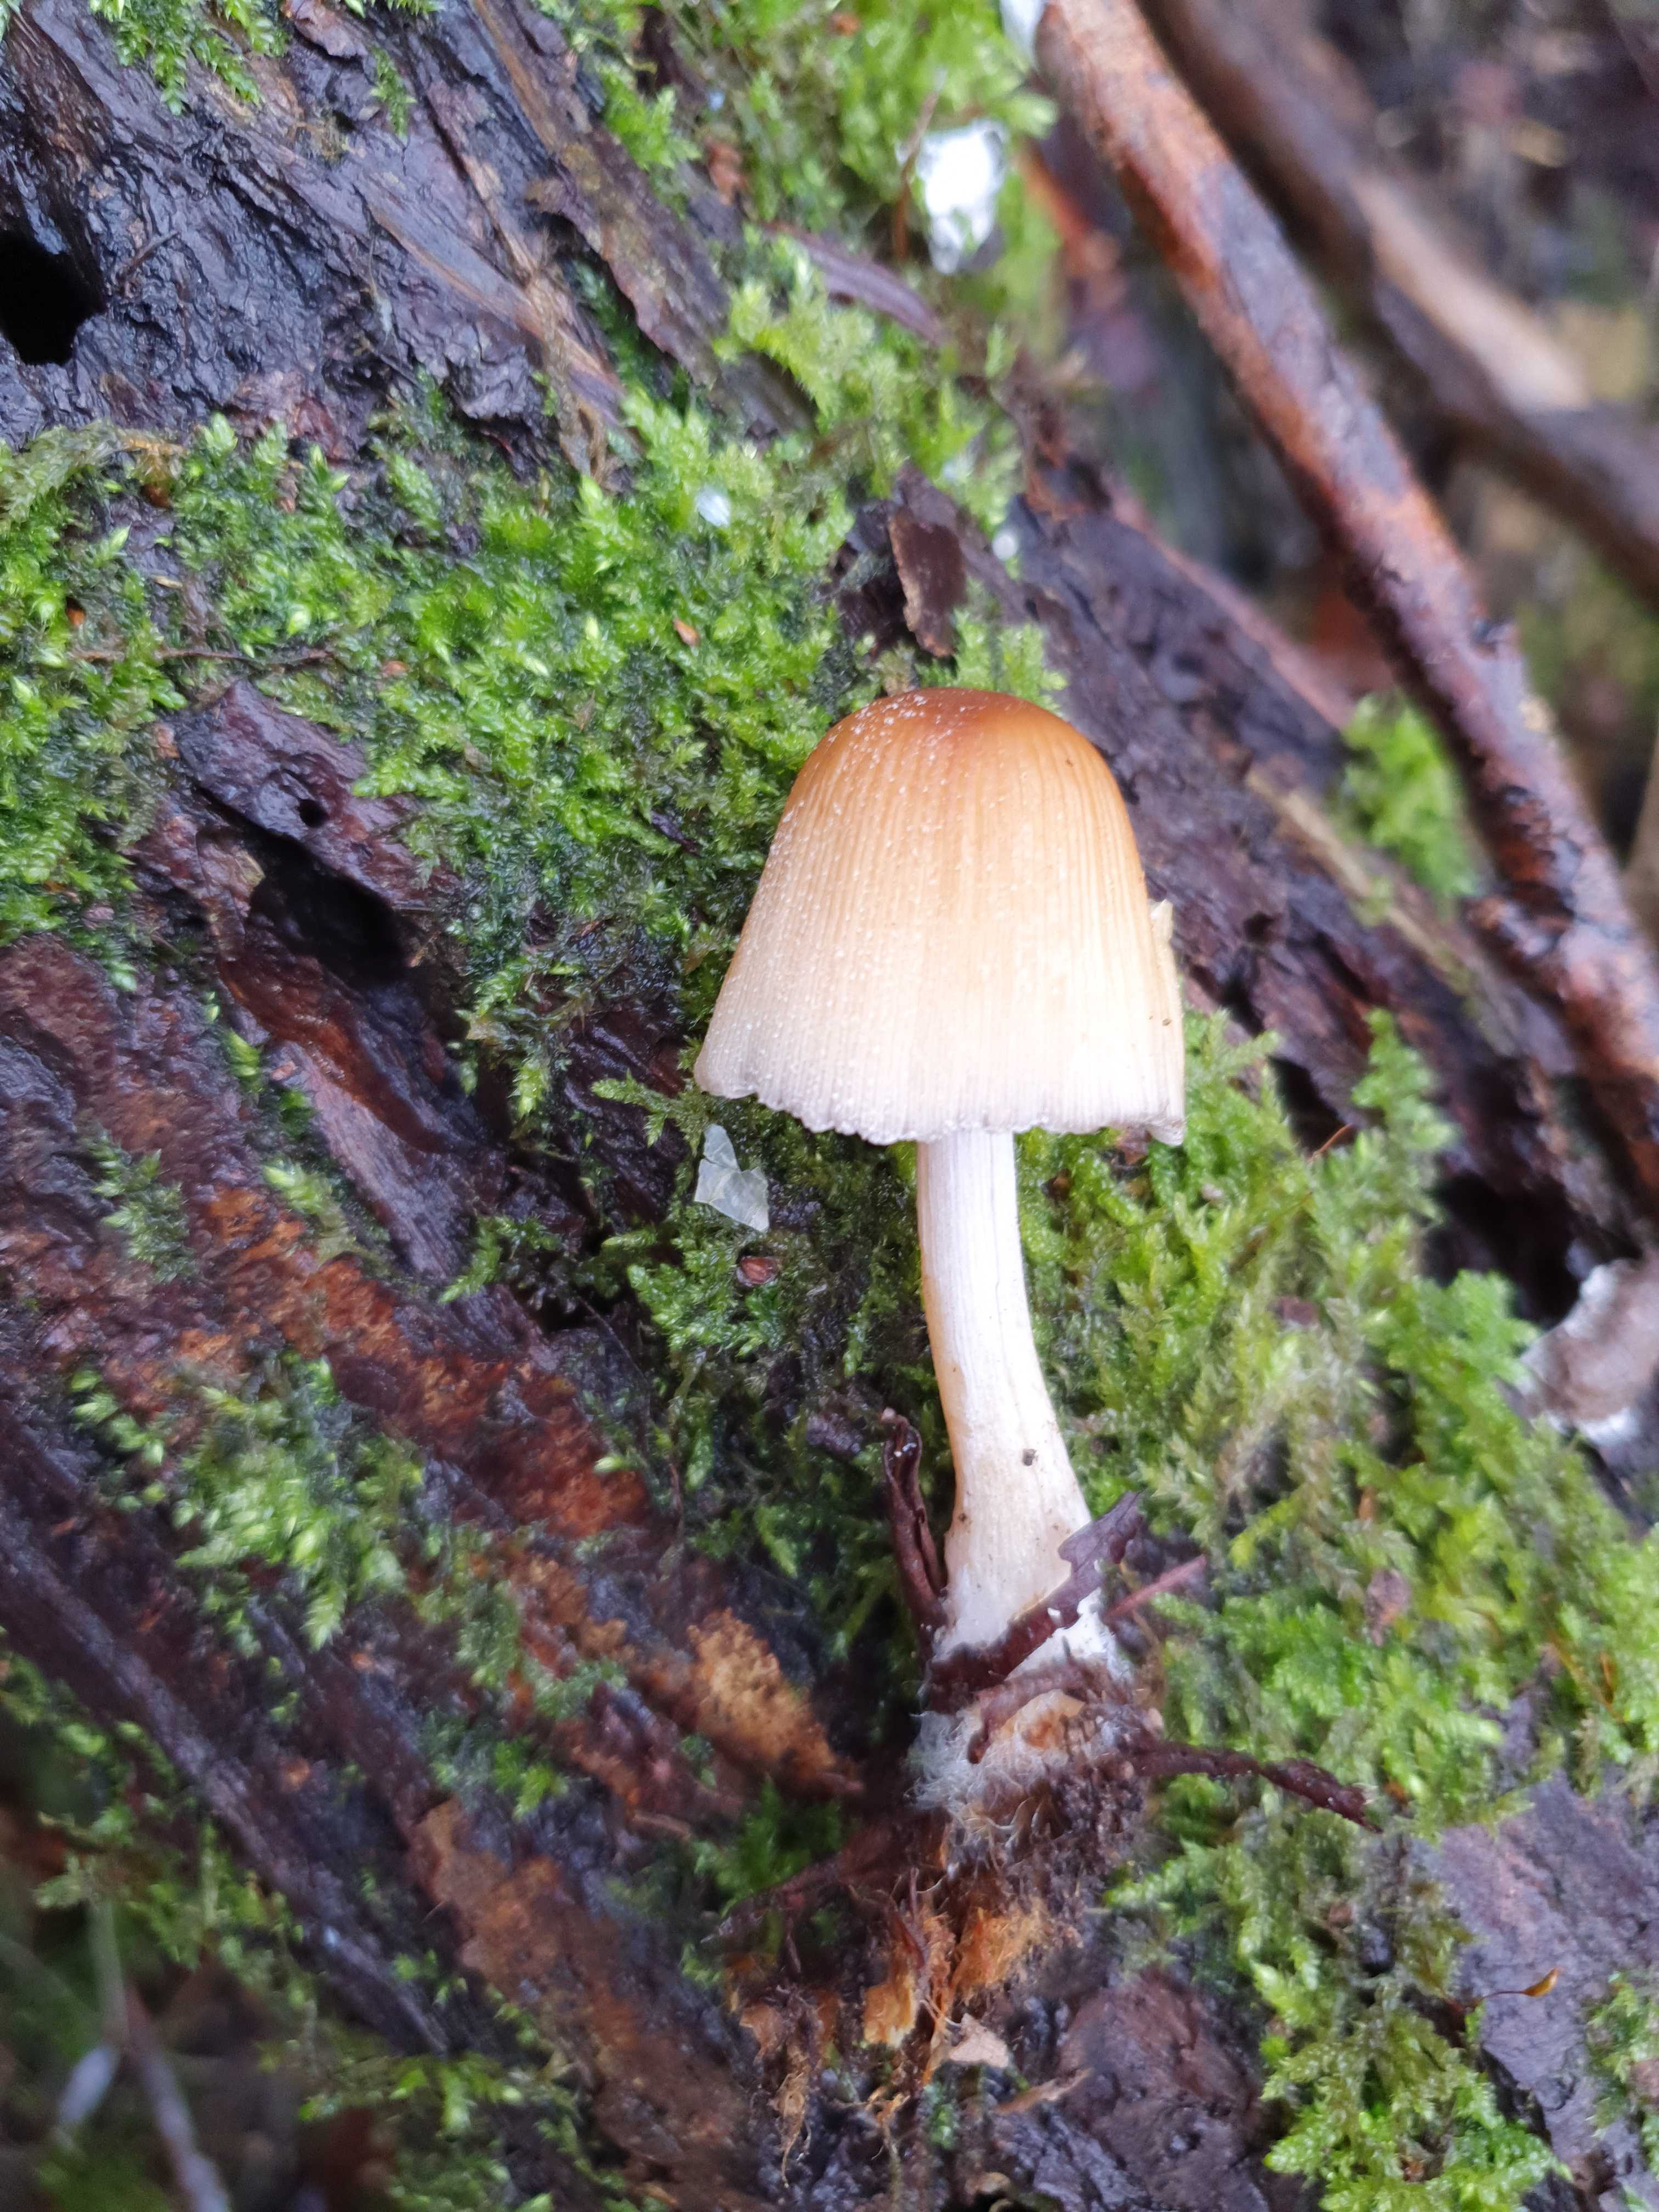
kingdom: Fungi
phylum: Basidiomycota
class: Agaricomycetes
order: Agaricales
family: Psathyrellaceae
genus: Coprinellus
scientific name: Coprinellus micaceus
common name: glimmer-blækhat
